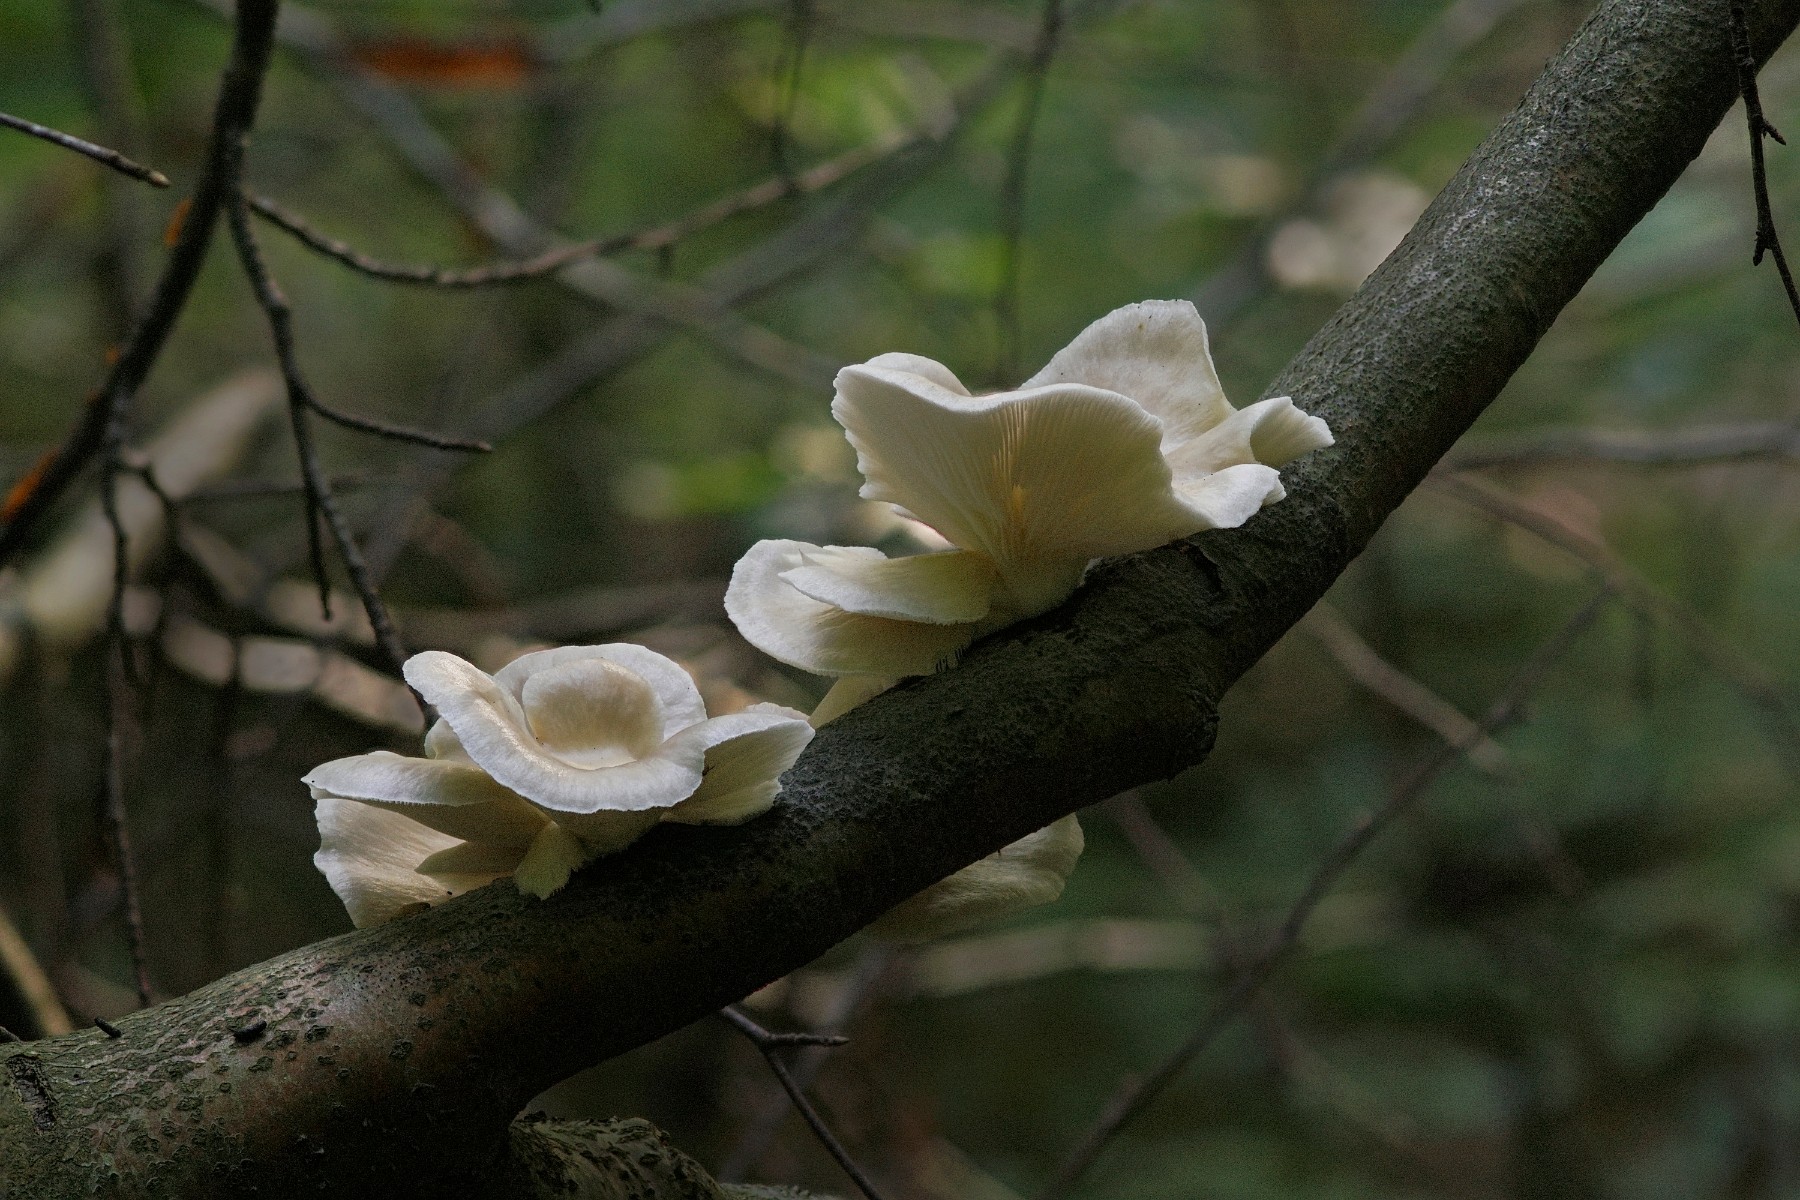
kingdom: Fungi
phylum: Basidiomycota
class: Agaricomycetes
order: Agaricales
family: Pleurotaceae
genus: Pleurotus
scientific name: Pleurotus pulmonarius
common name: sommer-østershat
